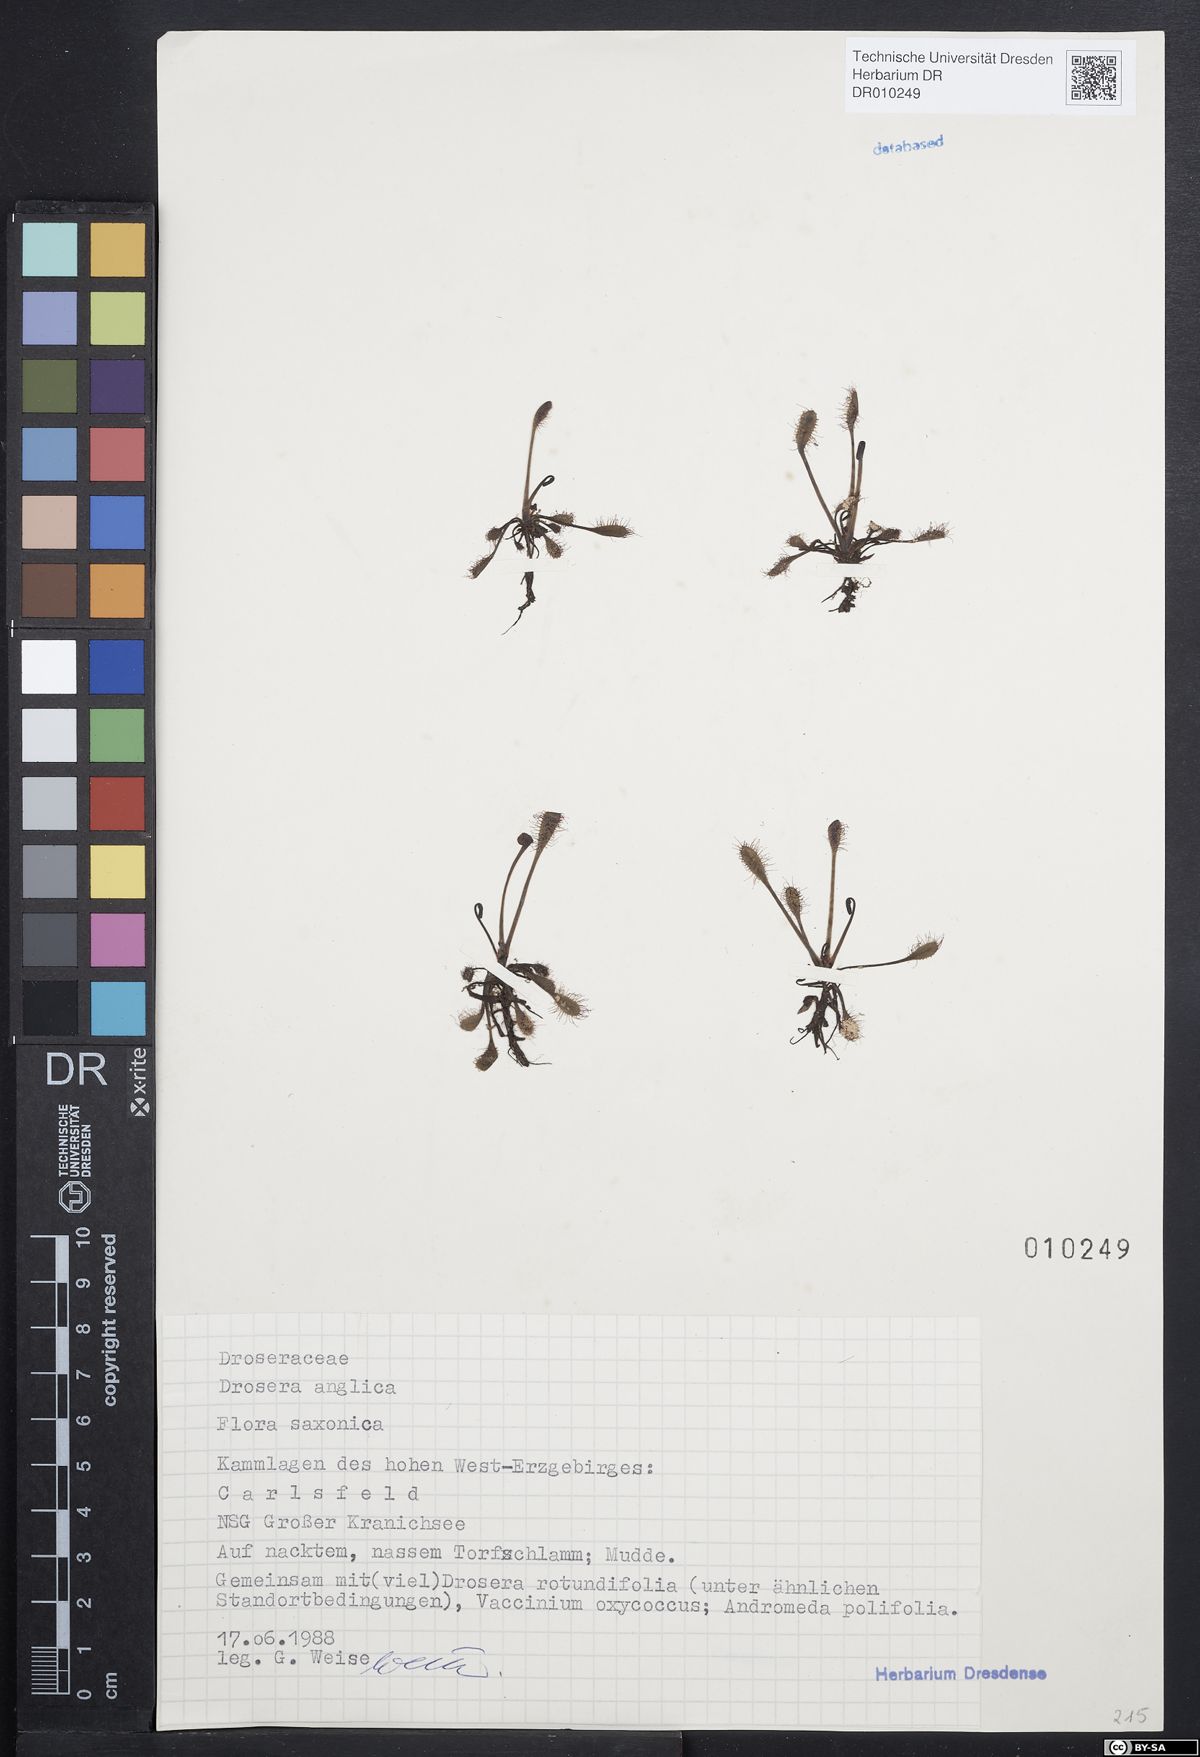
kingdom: Plantae
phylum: Tracheophyta
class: Magnoliopsida
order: Caryophyllales
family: Droseraceae
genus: Drosera
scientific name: Drosera anglica
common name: Great sundew
